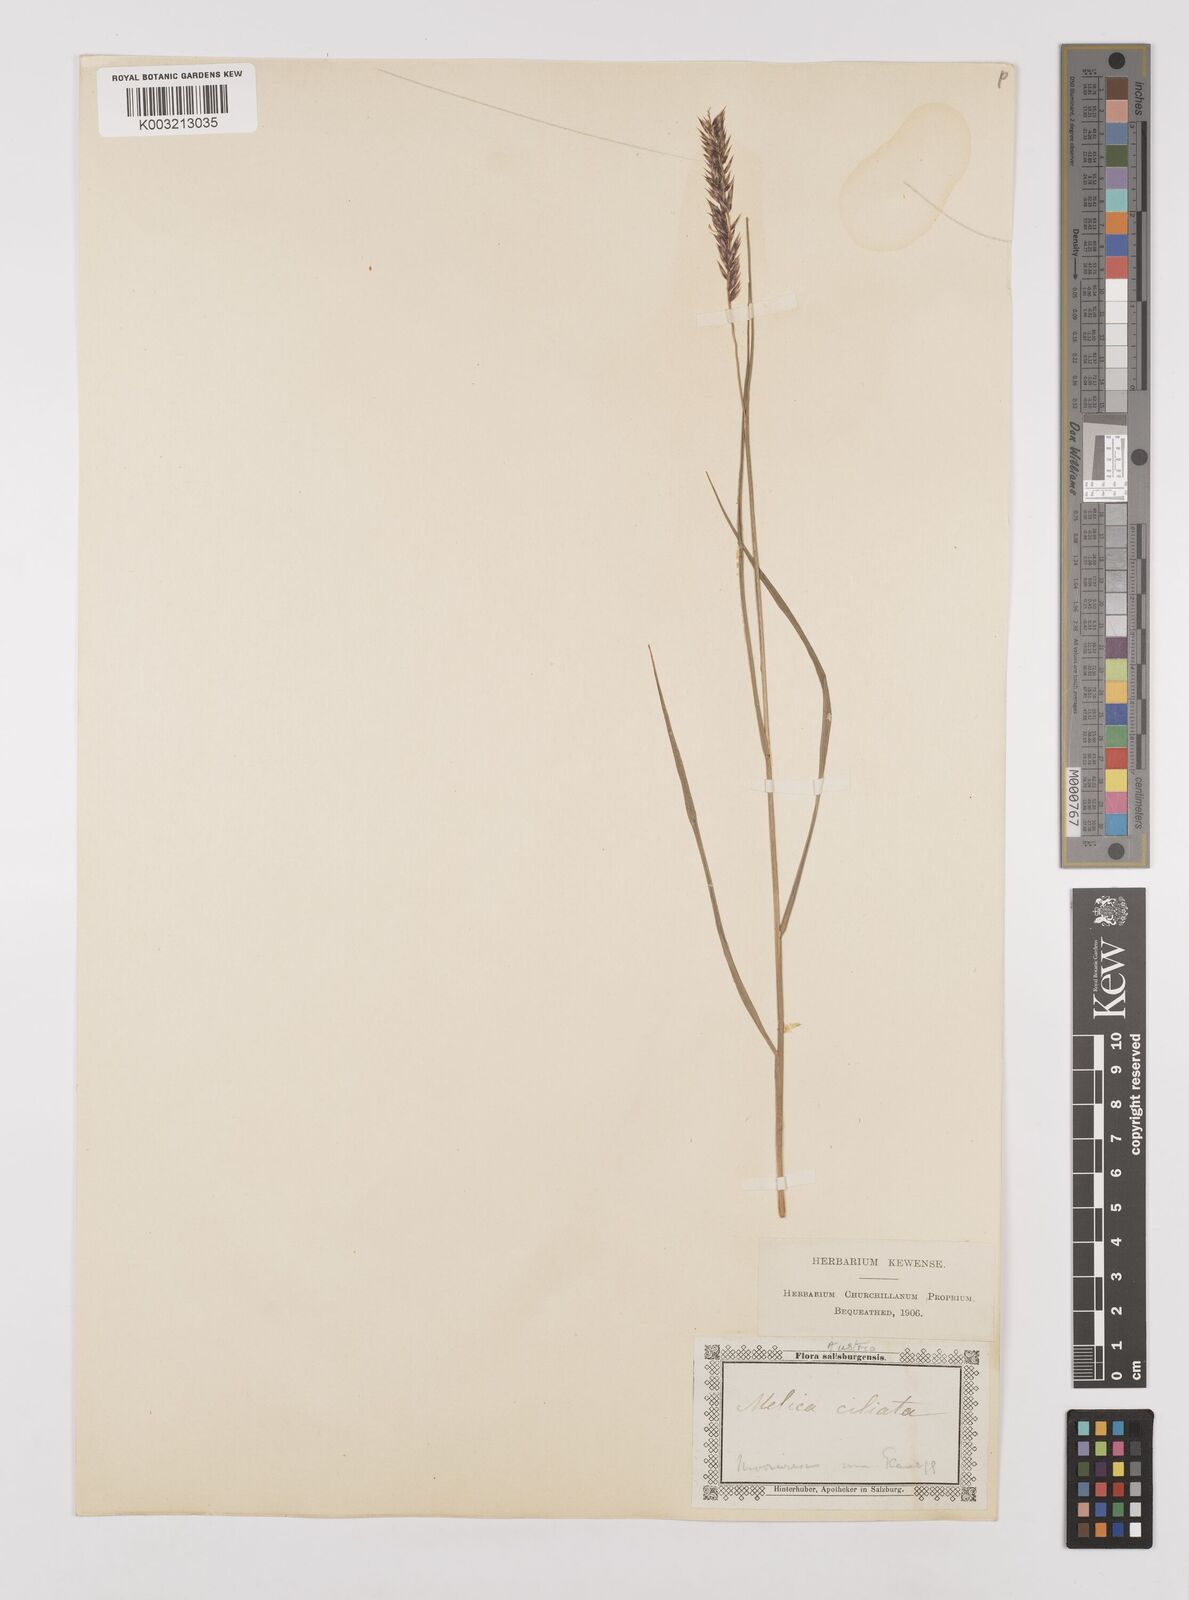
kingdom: Plantae
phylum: Tracheophyta
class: Liliopsida
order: Poales
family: Poaceae
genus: Melica
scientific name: Melica ciliata
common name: Hairy melicgrass
